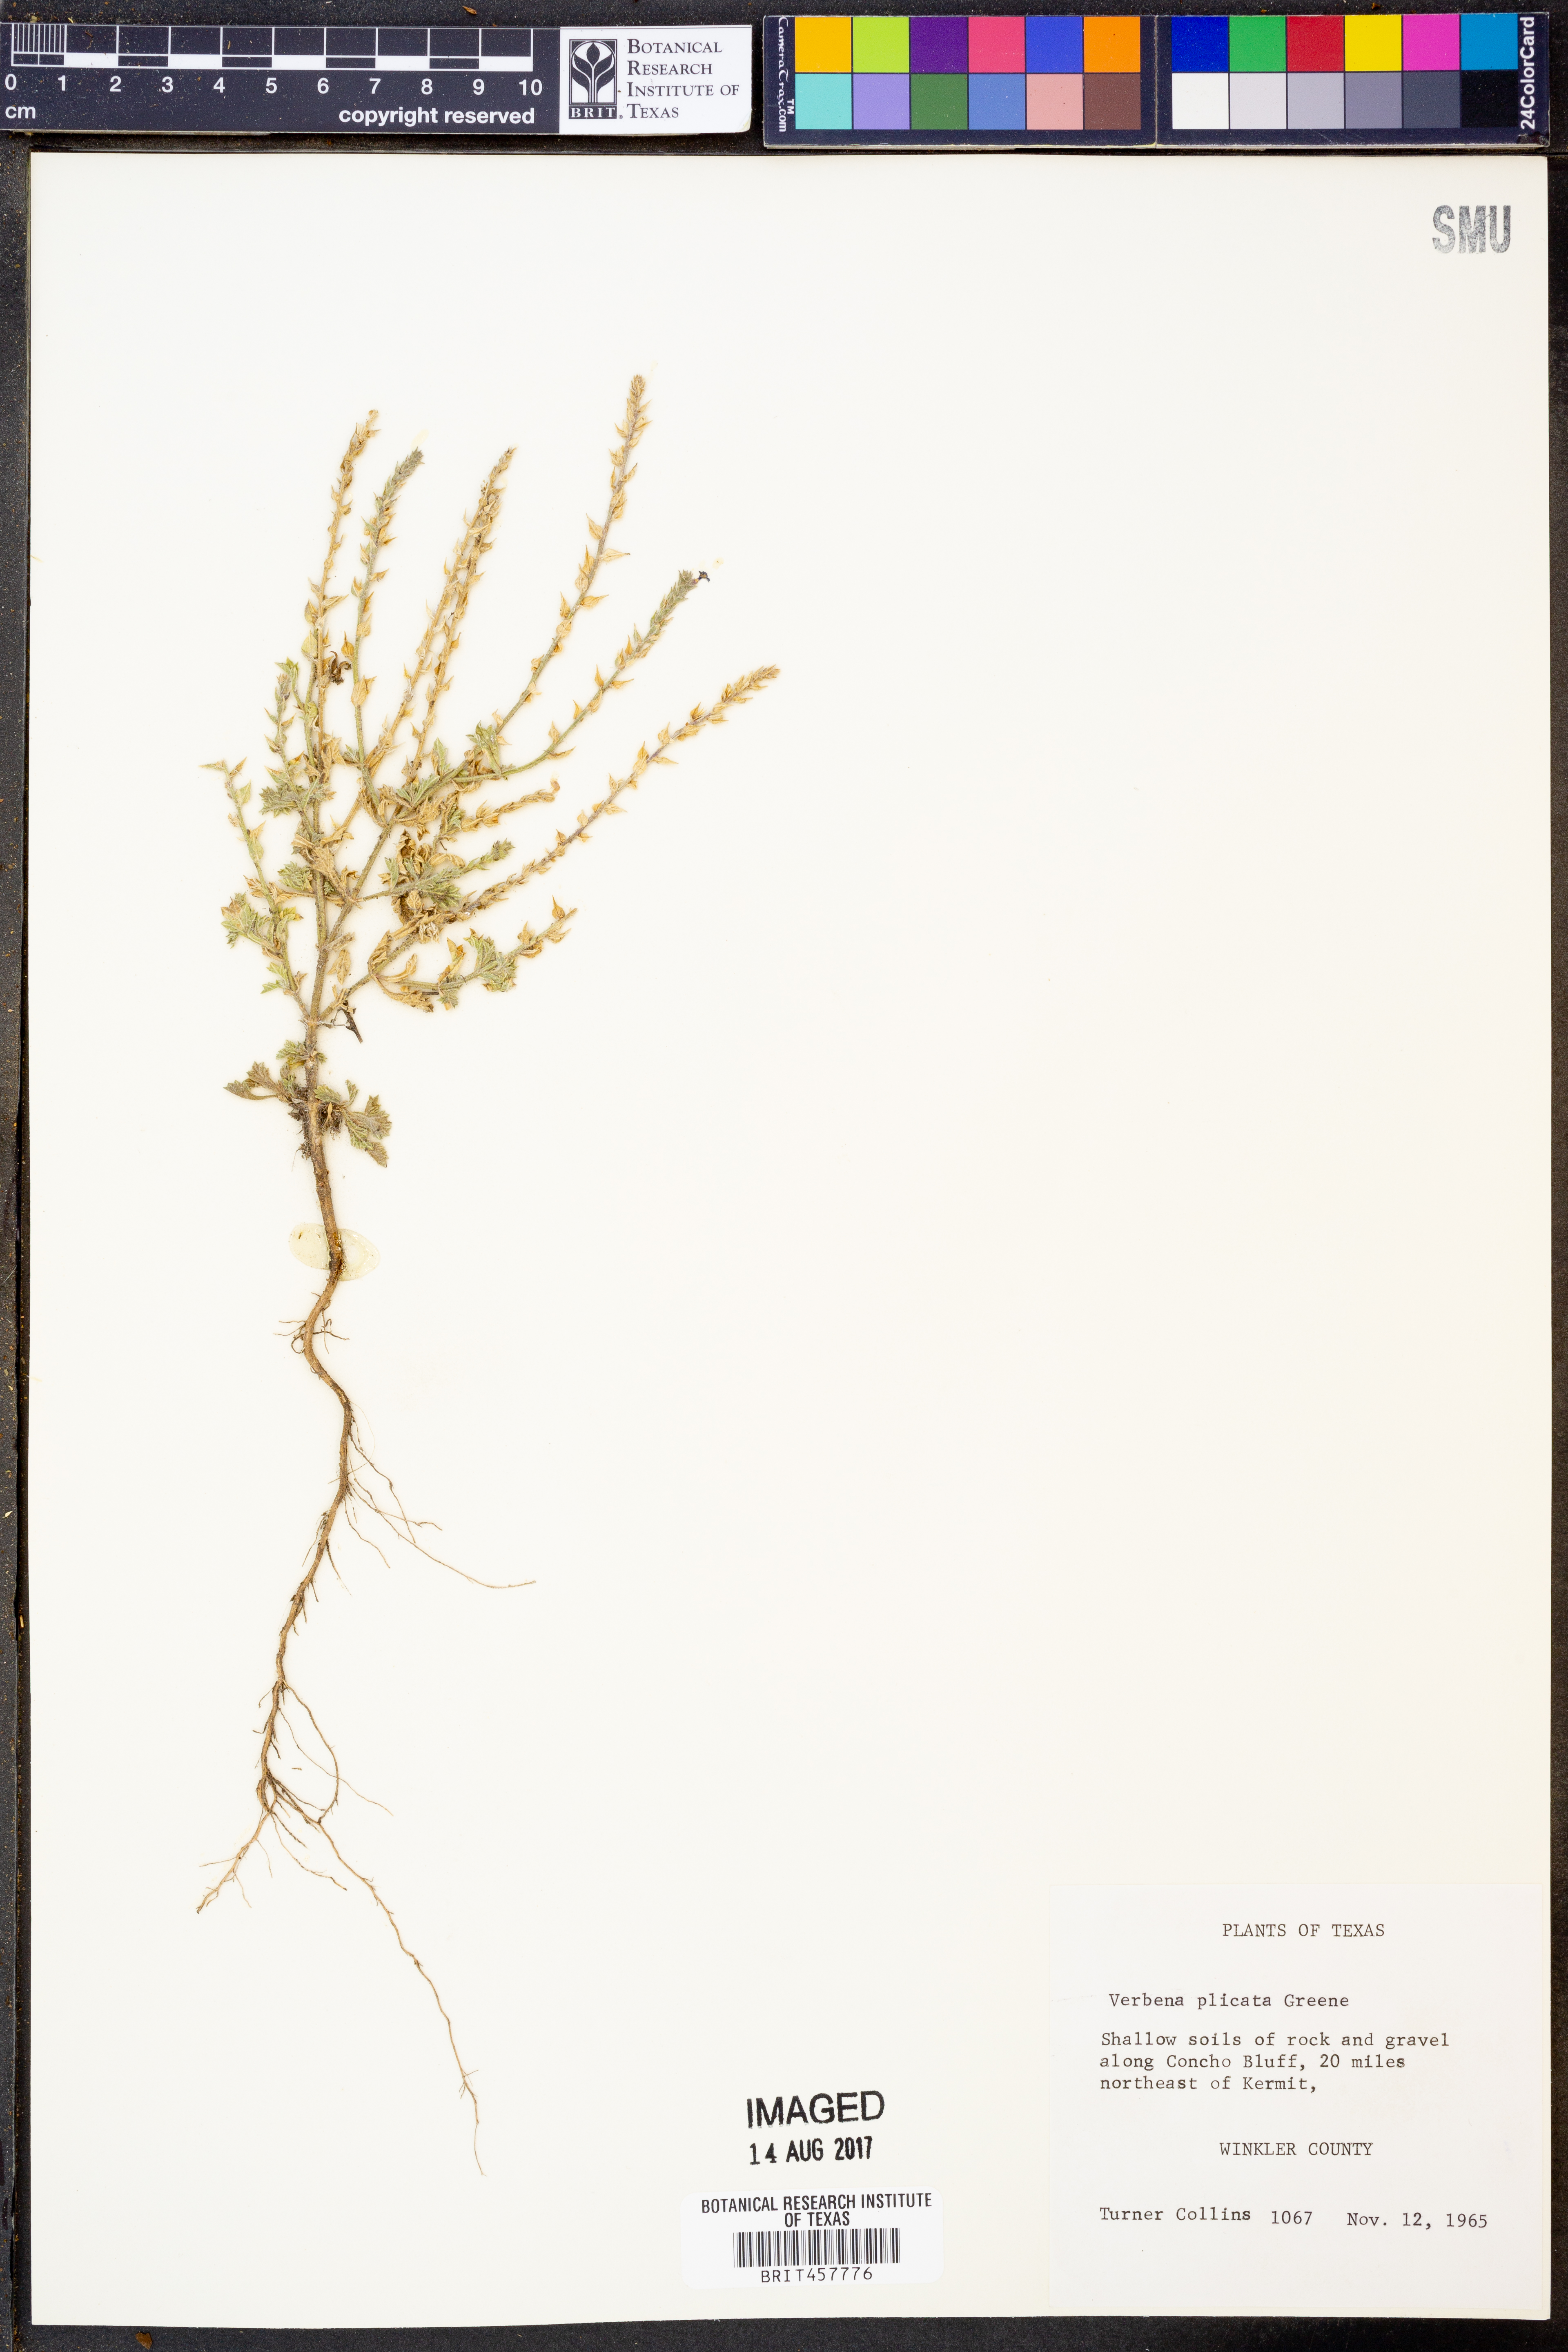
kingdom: Plantae
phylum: Tracheophyta
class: Magnoliopsida
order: Lamiales
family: Verbenaceae
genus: Verbena
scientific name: Verbena plicata
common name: Fan-leaf vervain
